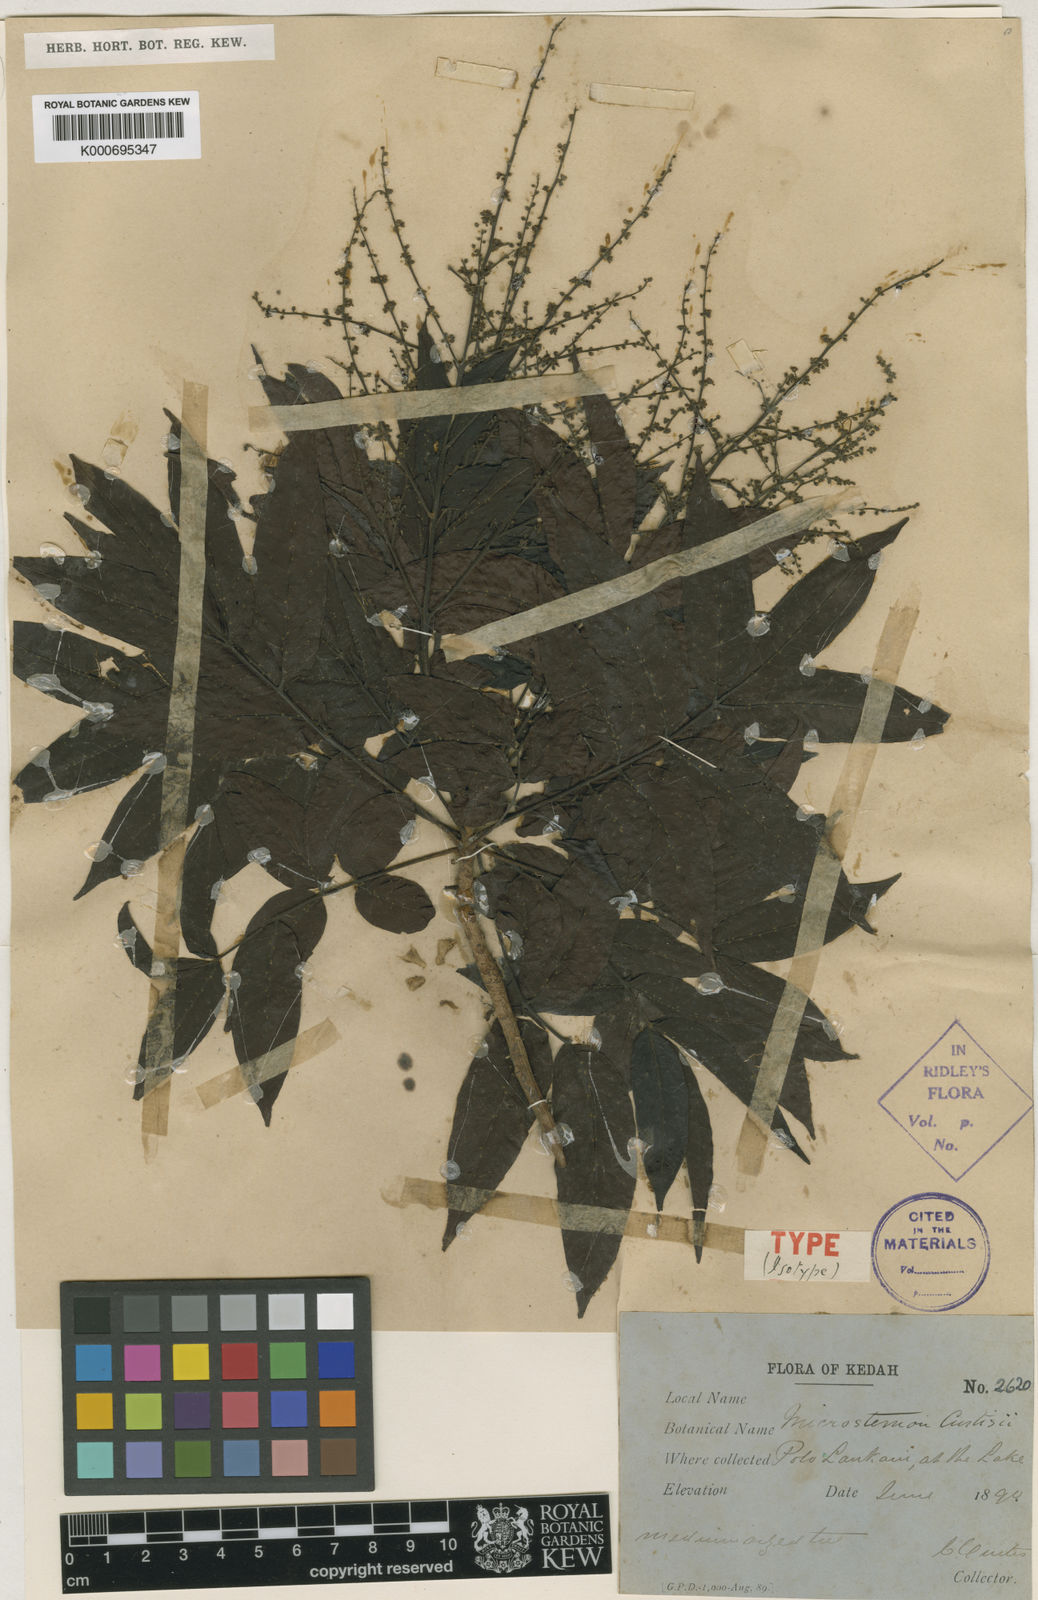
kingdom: Plantae
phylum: Tracheophyta
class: Magnoliopsida
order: Sapindales
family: Anacardiaceae
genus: Pentaspadon
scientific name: Pentaspadon curtisii
